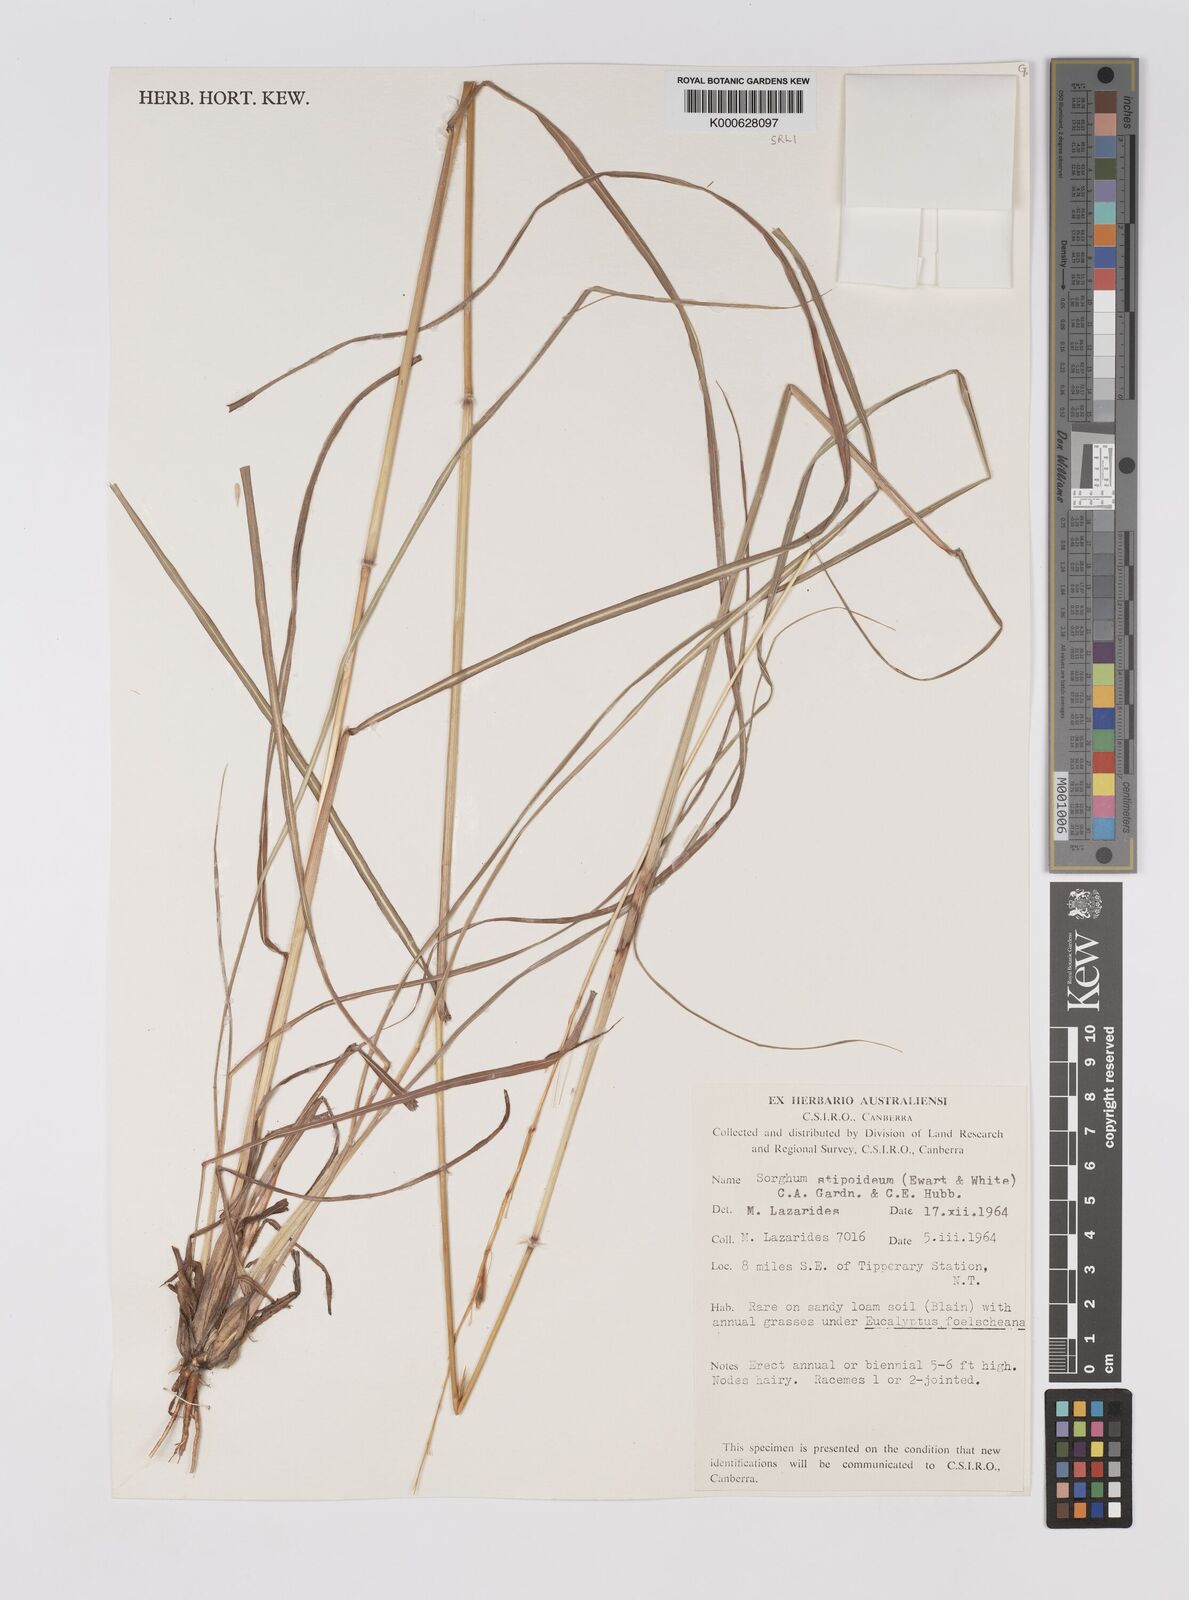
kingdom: Plantae
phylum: Tracheophyta
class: Liliopsida
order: Poales
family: Poaceae
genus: Sarga
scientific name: Sarga stipoidea
